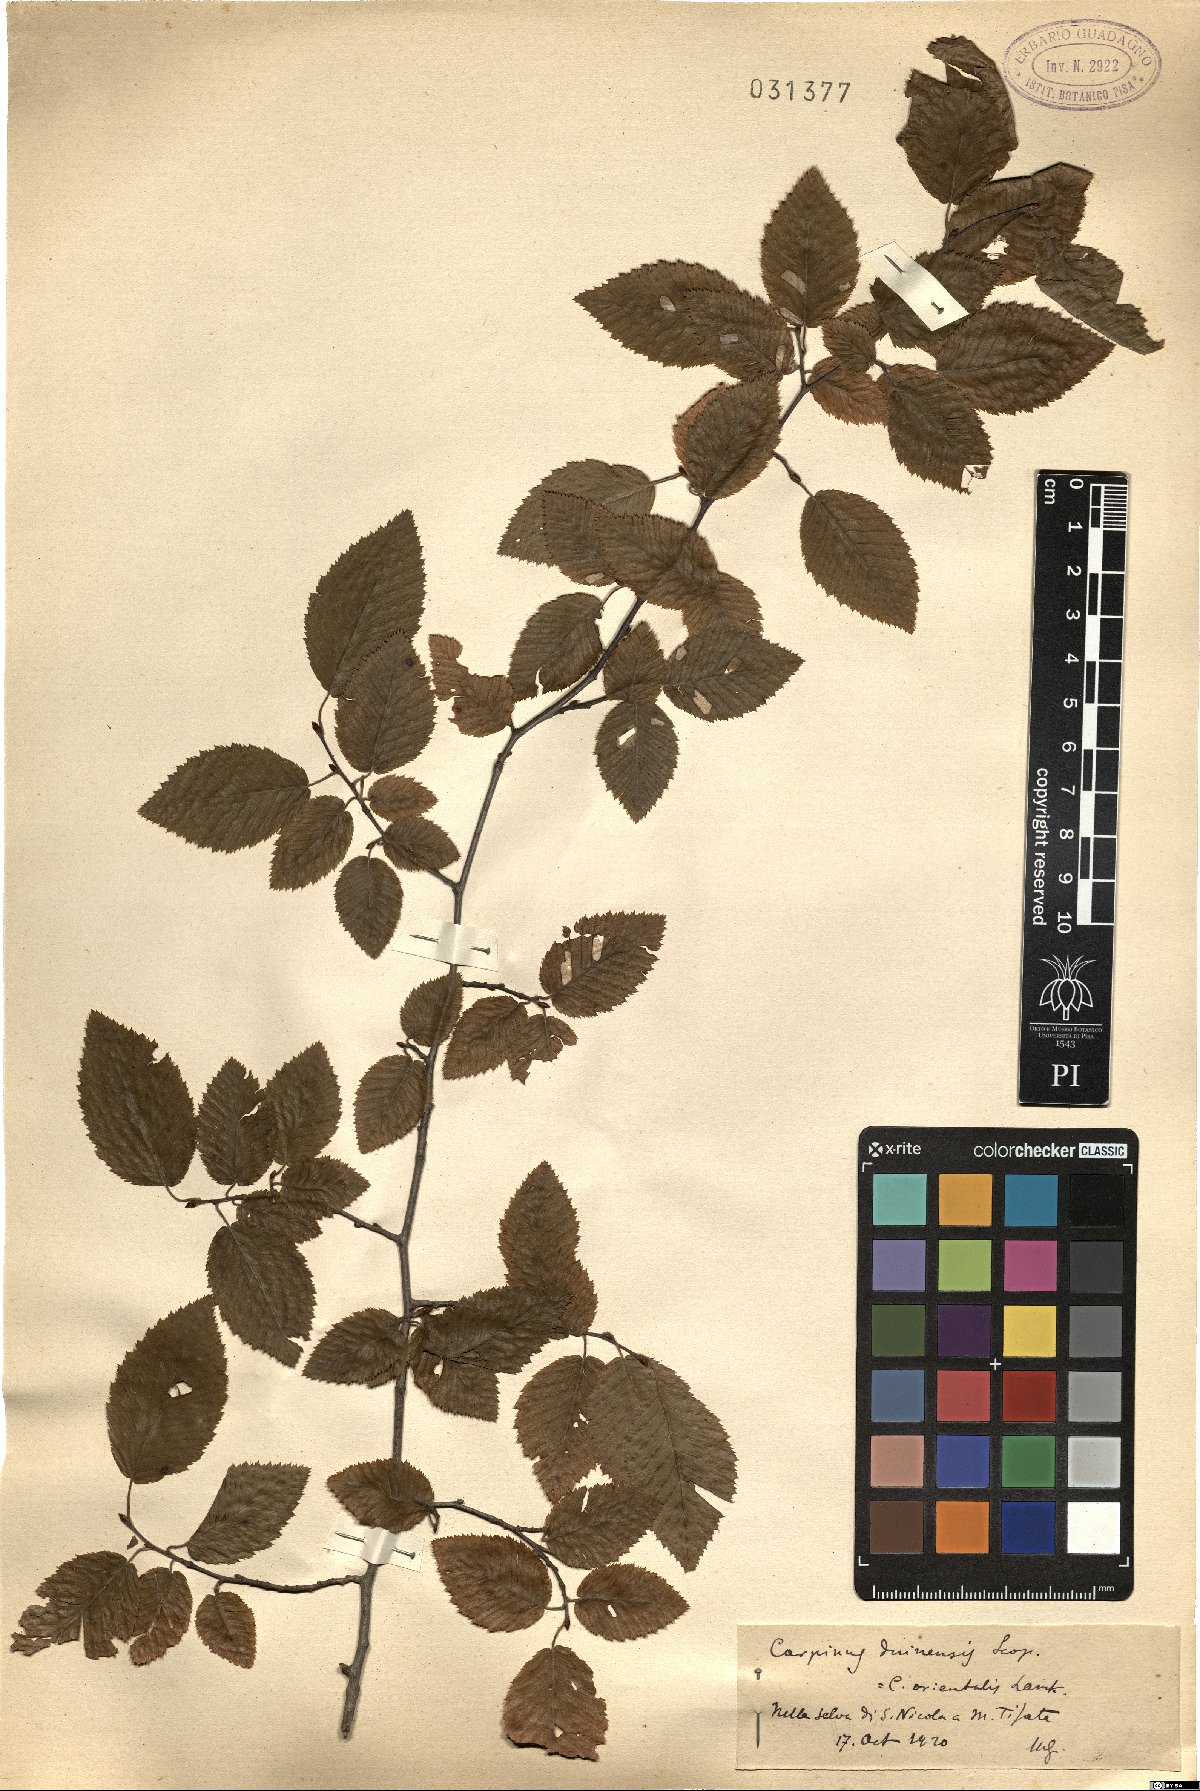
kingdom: Plantae
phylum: Tracheophyta
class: Magnoliopsida
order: Fagales
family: Betulaceae
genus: Carpinus
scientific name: Carpinus orientalis
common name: Eastern hornbeam
